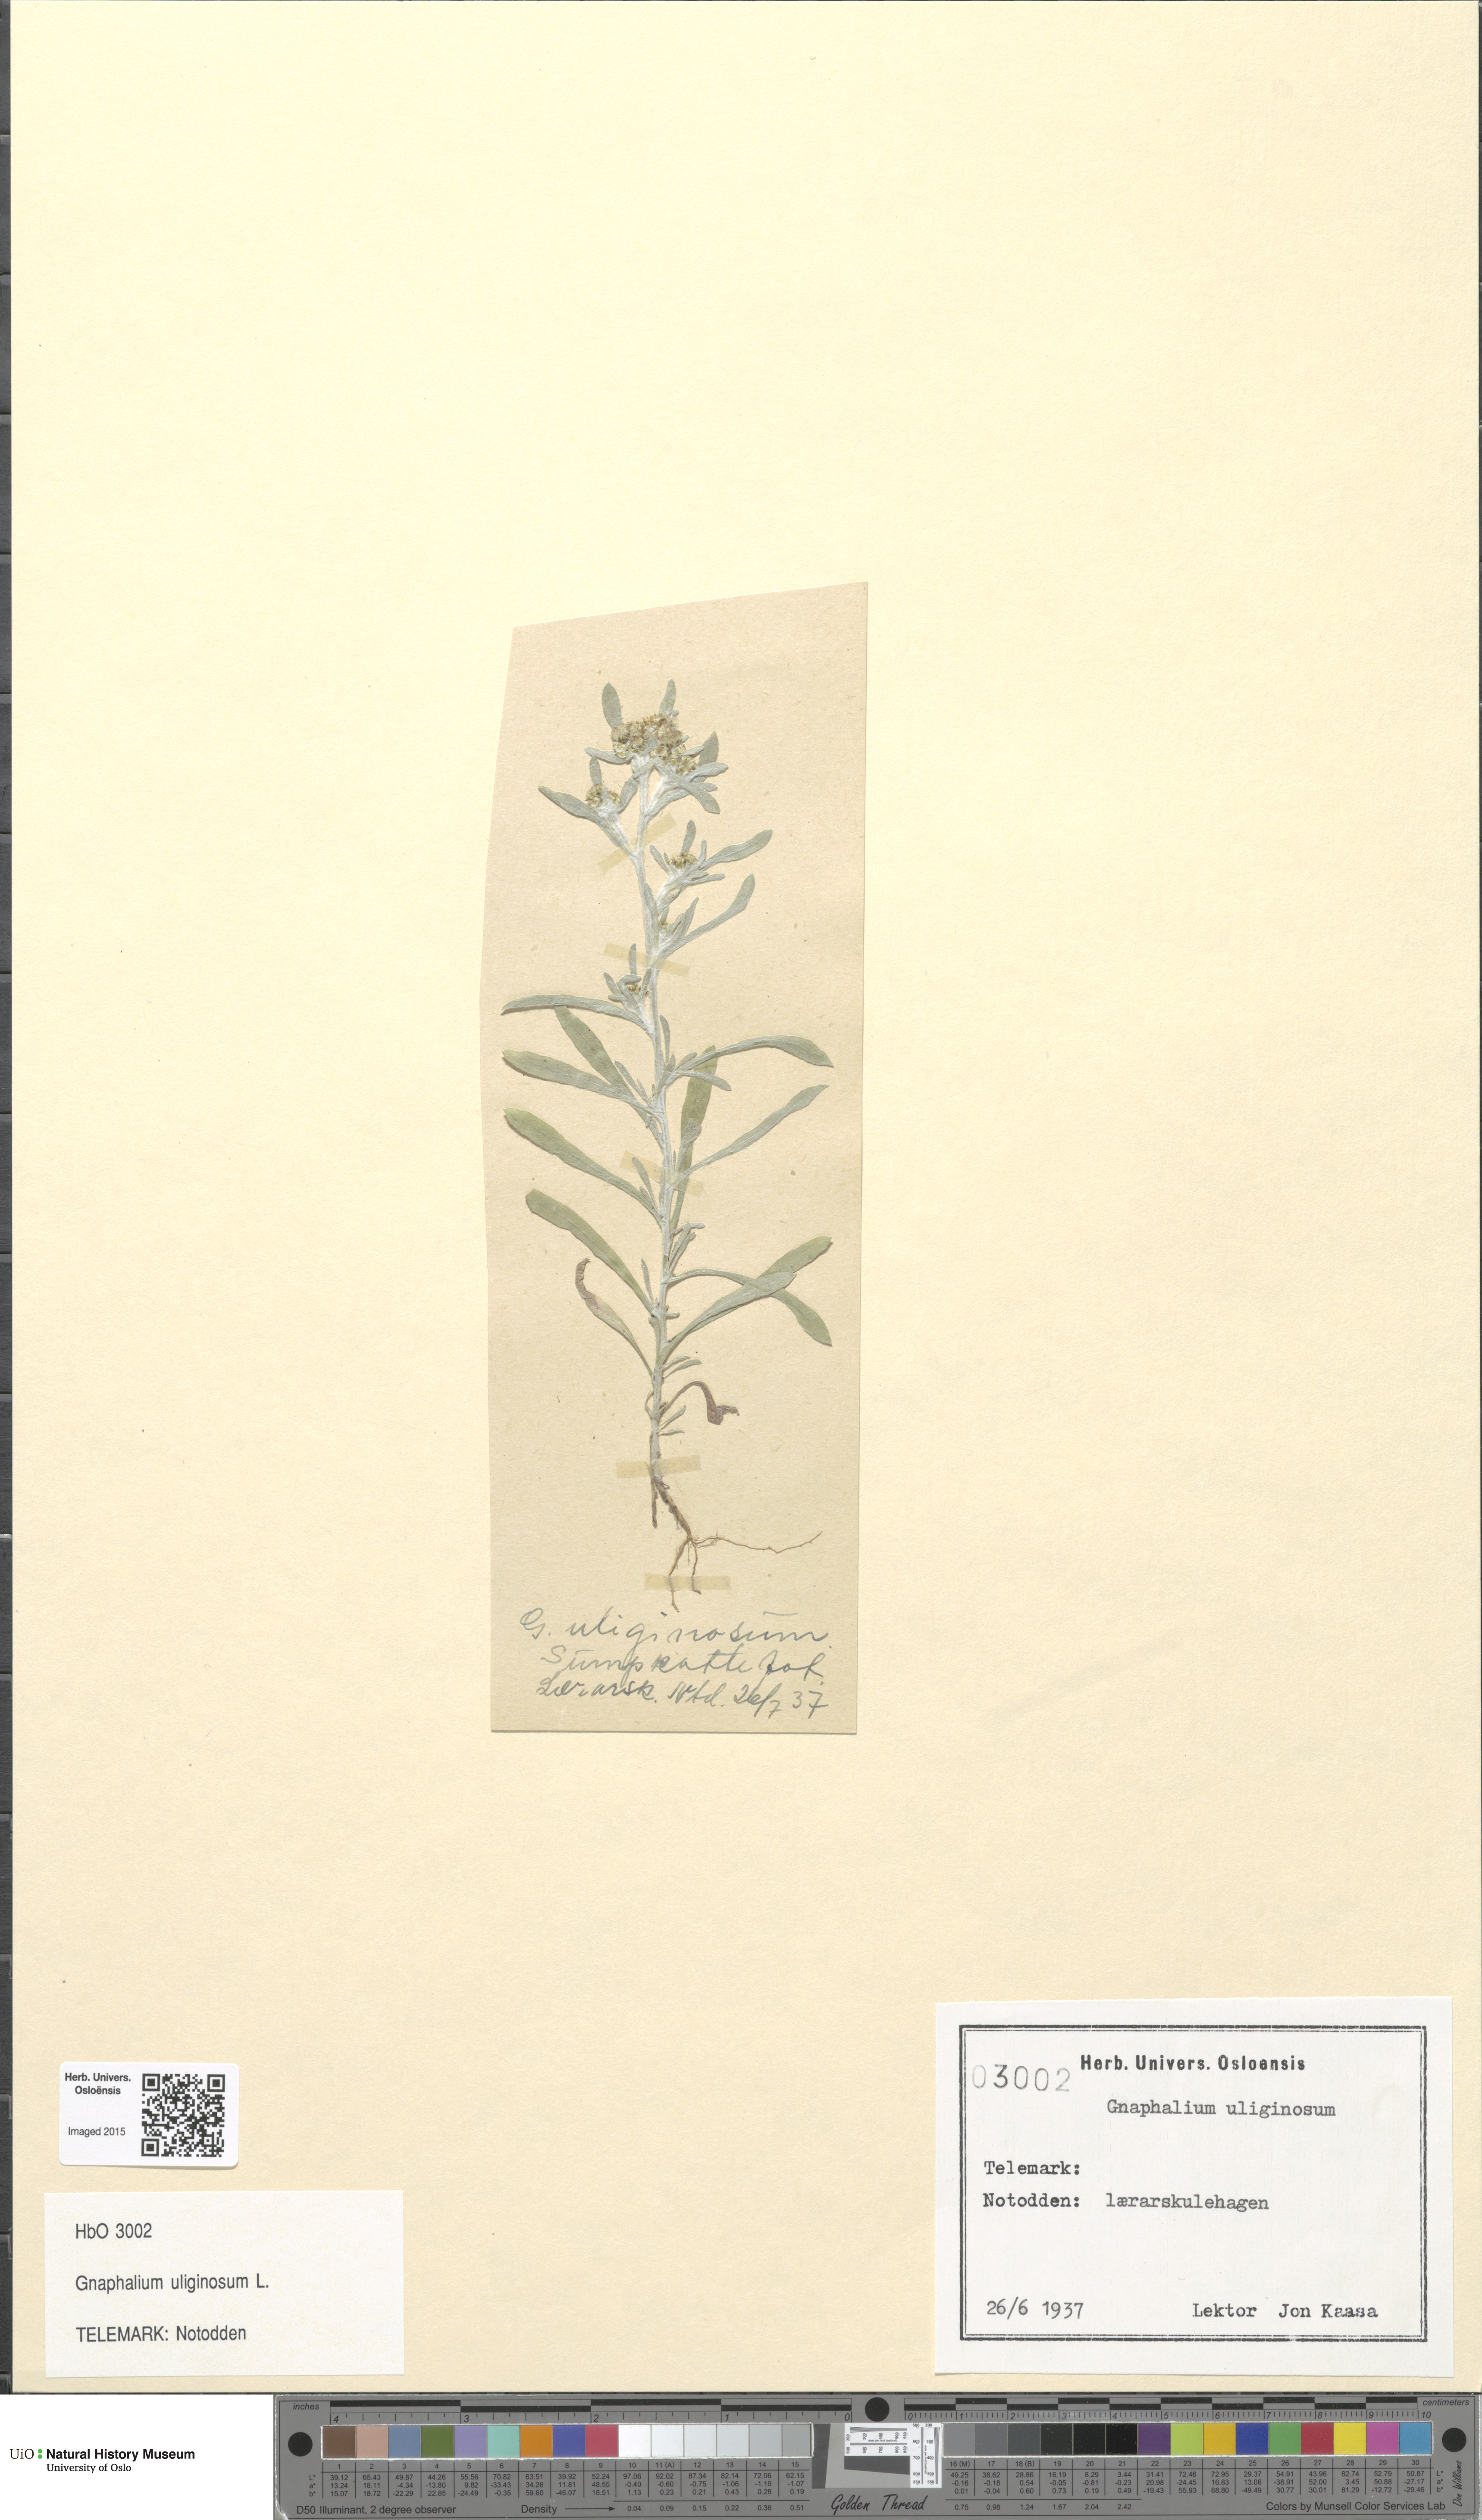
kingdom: Plantae
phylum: Tracheophyta
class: Magnoliopsida
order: Asterales
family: Asteraceae
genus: Gnaphalium
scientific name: Gnaphalium uliginosum
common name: Marsh cudweed
